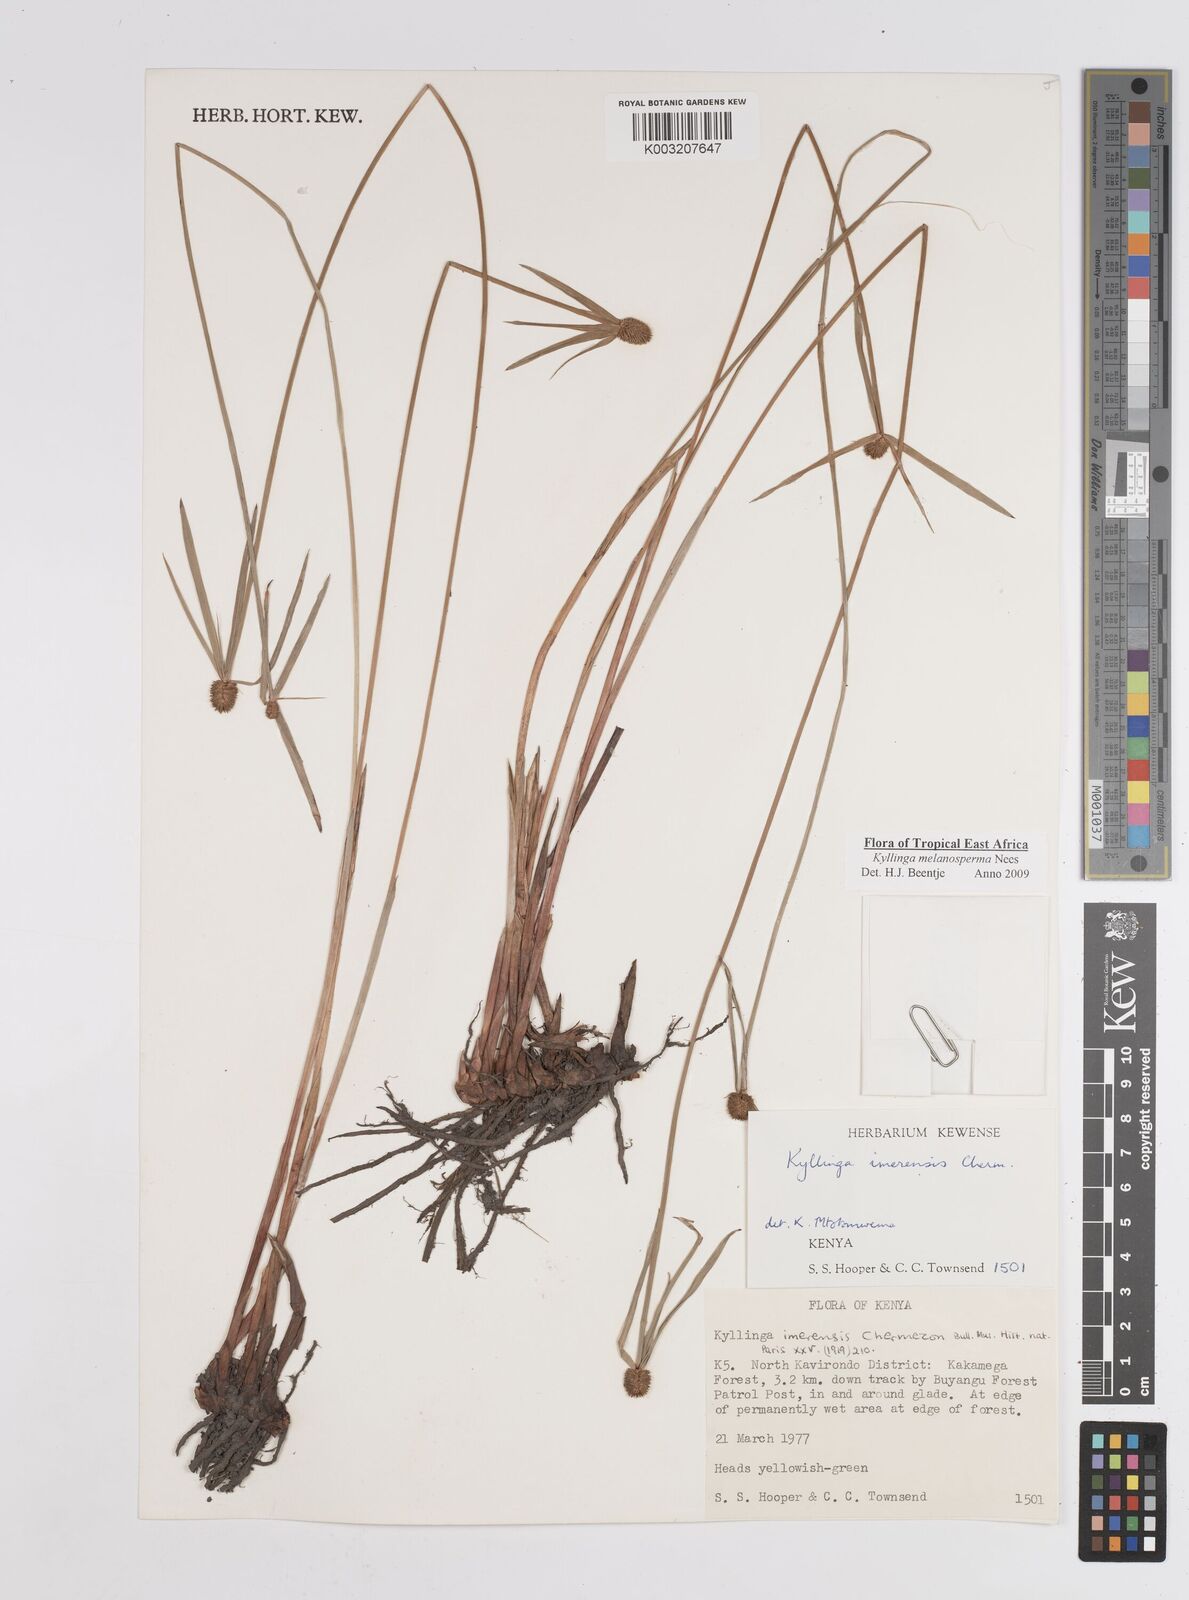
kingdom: Plantae
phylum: Tracheophyta
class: Liliopsida
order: Poales
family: Cyperaceae
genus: Cyperus
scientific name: Cyperus melanospermus
